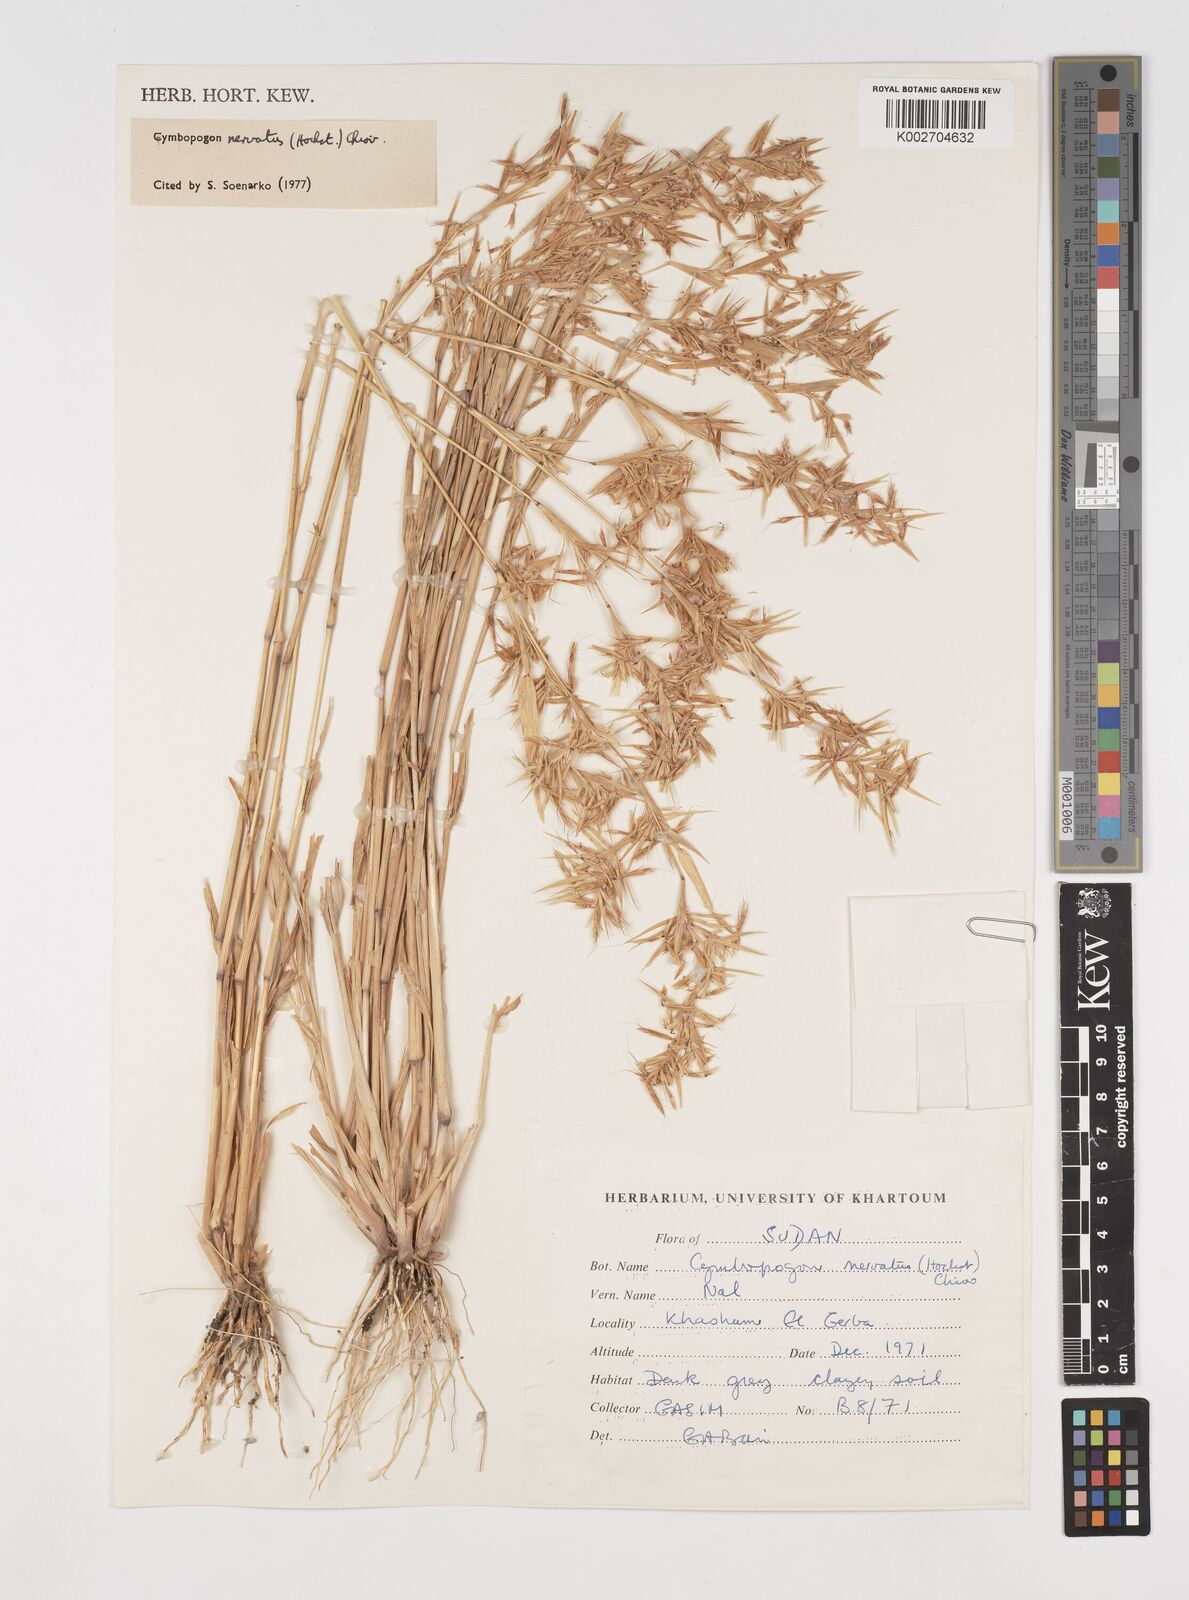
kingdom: Plantae
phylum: Tracheophyta
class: Liliopsida
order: Poales
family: Poaceae
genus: Cymbopogon
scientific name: Cymbopogon nervatus
